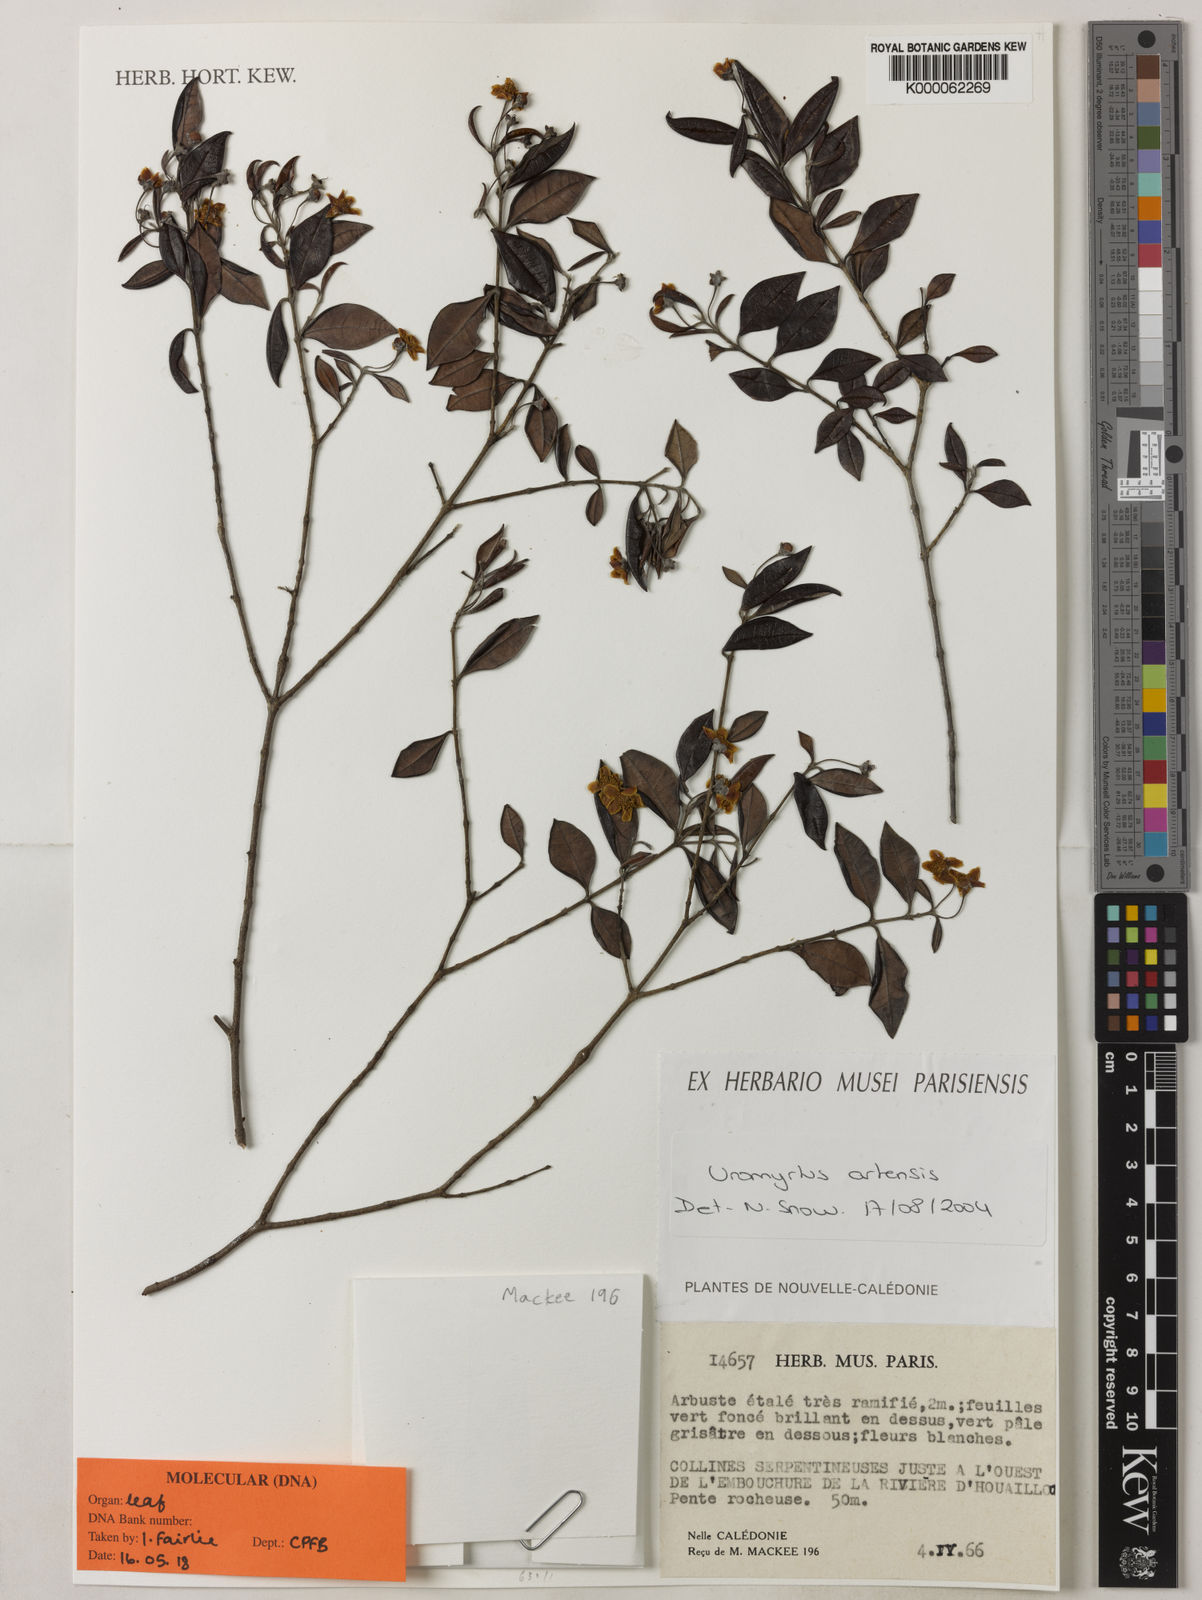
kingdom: Plantae
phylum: Tracheophyta
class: Magnoliopsida
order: Myrtales
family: Myrtaceae
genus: Uromyrtus
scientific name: Uromyrtus artensis
